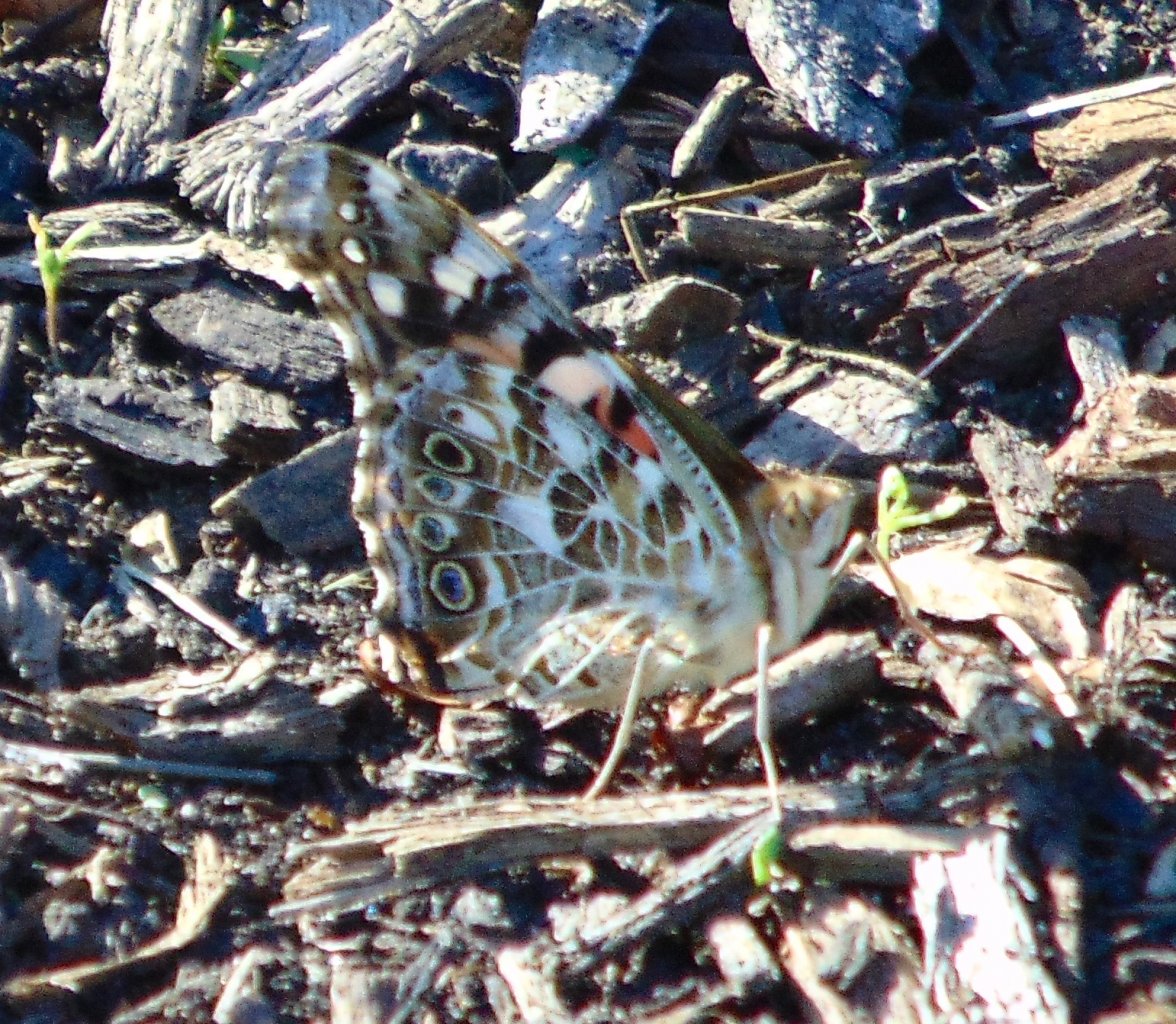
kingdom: Animalia
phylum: Arthropoda
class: Insecta
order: Lepidoptera
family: Nymphalidae
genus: Vanessa
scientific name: Vanessa cardui
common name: Painted Lady
